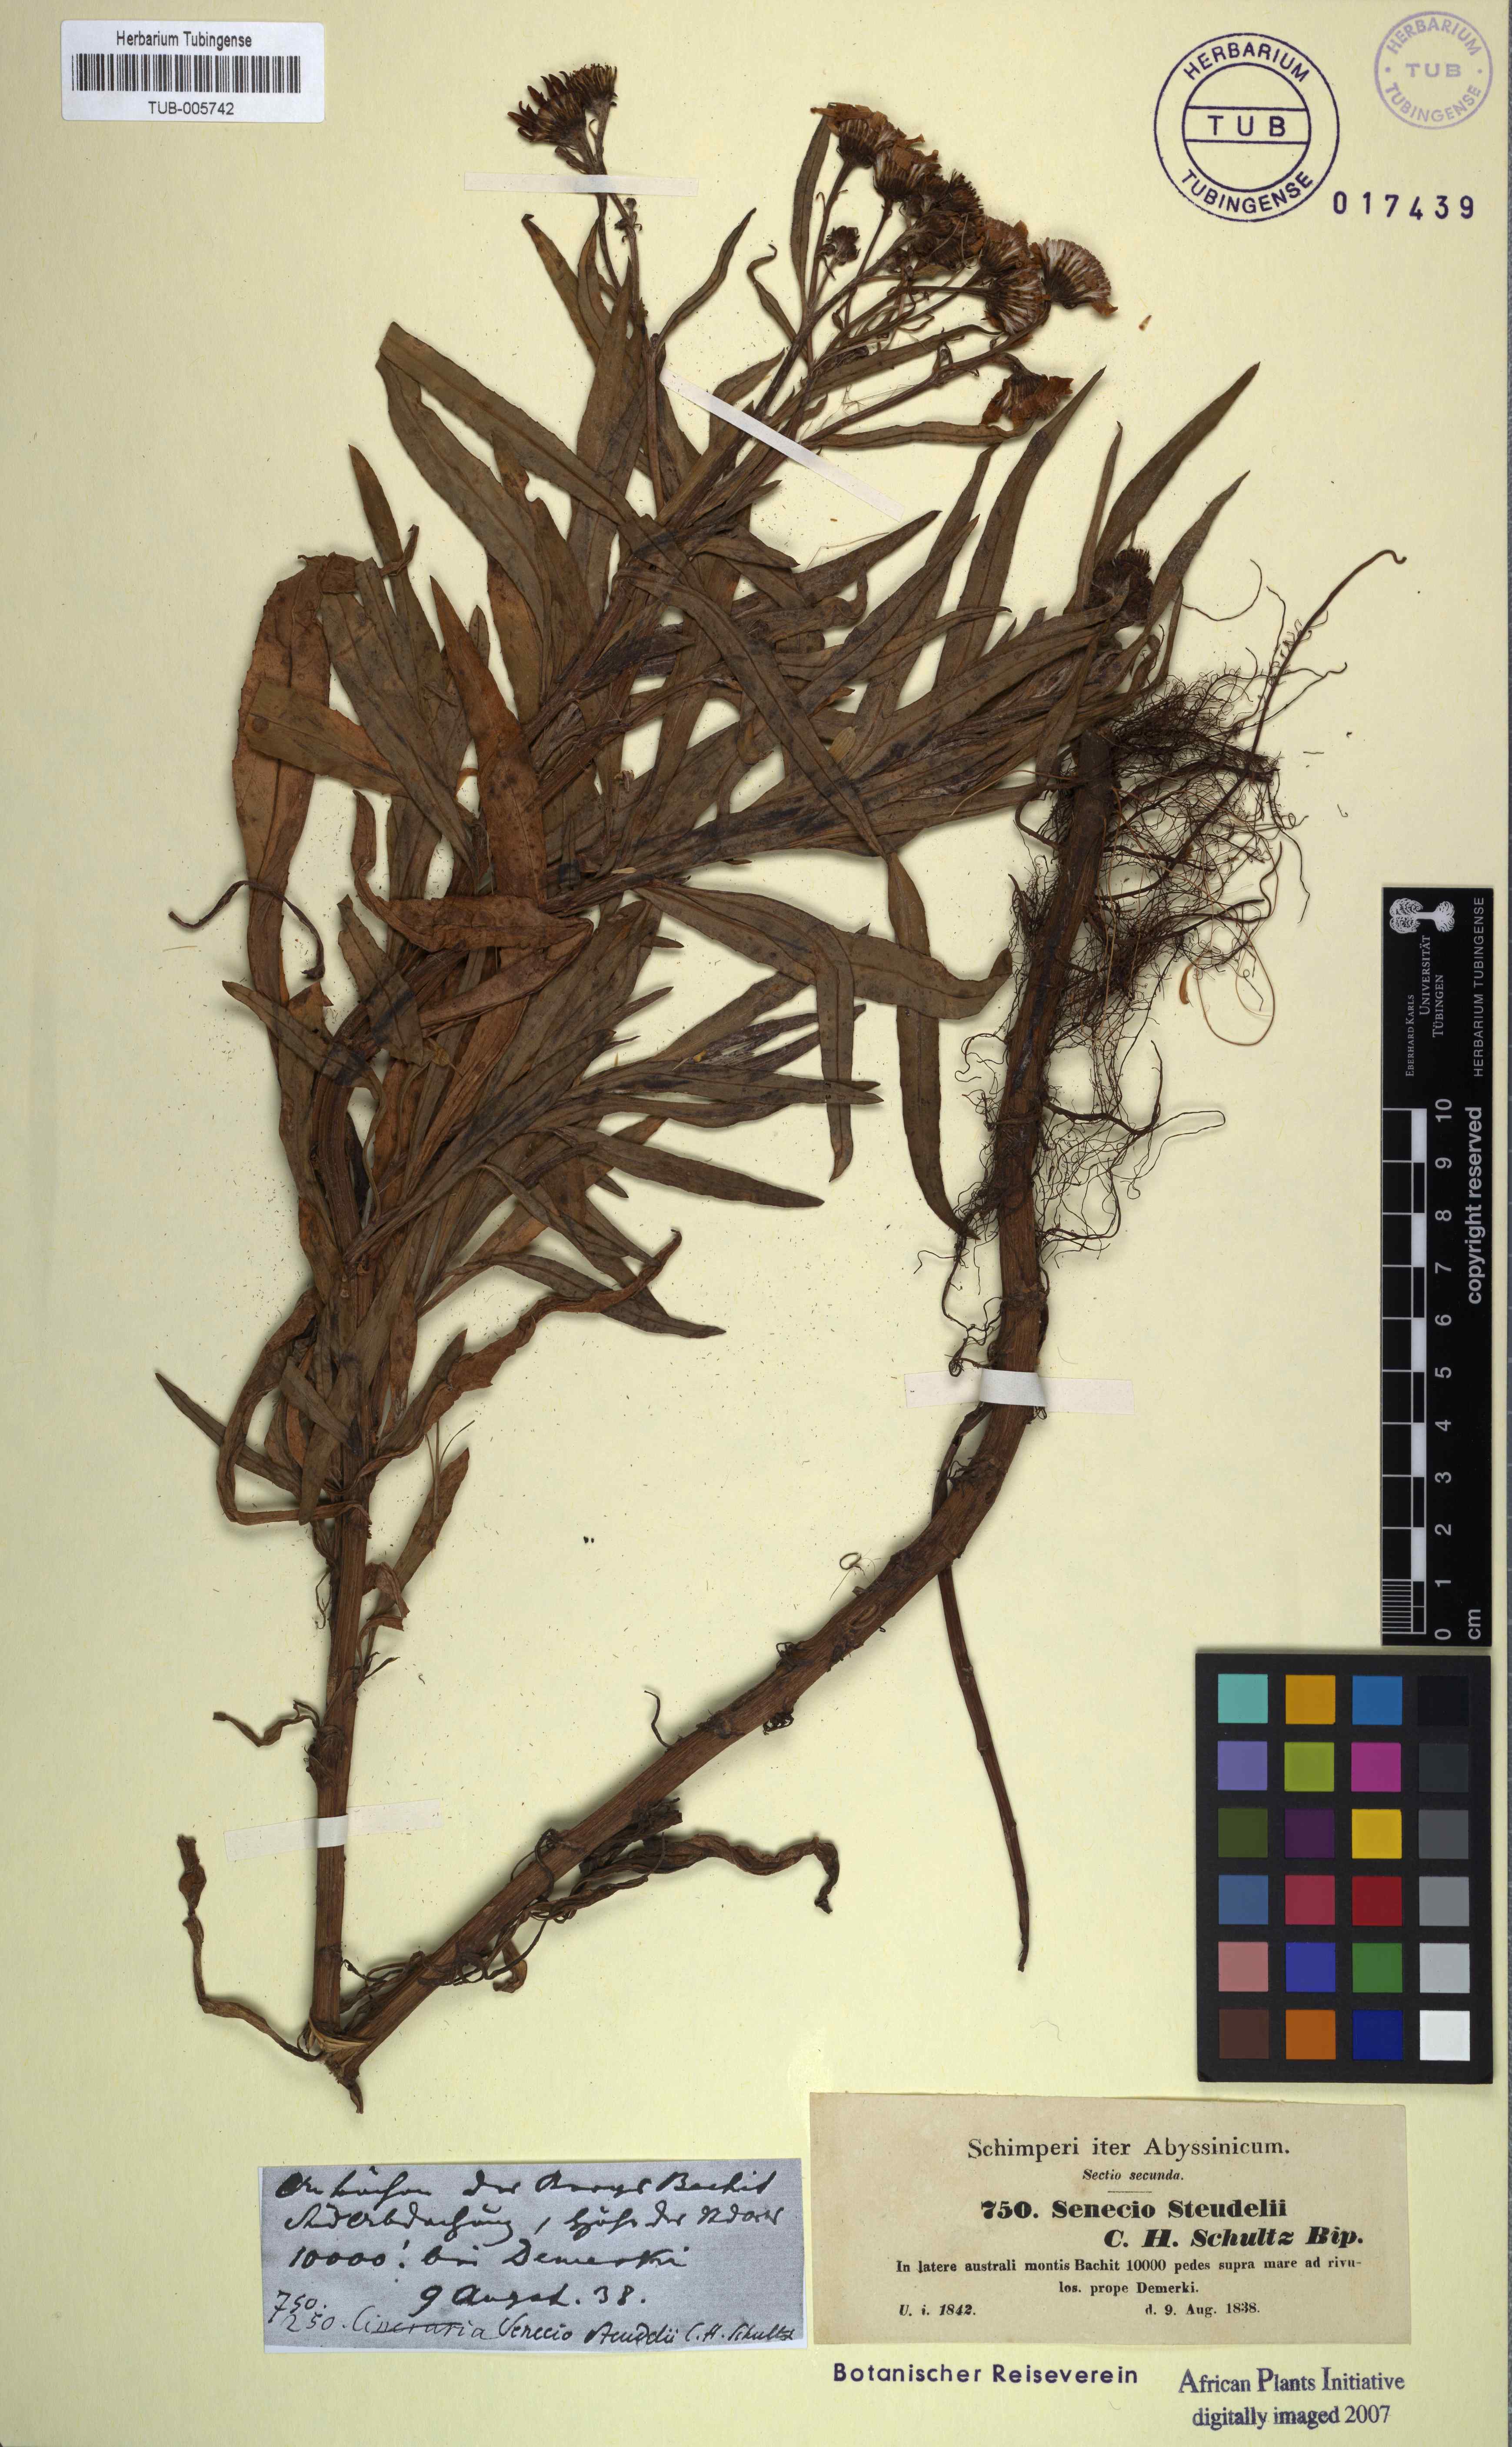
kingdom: Plantae
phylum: Tracheophyta
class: Magnoliopsida
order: Asterales
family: Asteraceae
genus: Senecio
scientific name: Senecio steudelii
